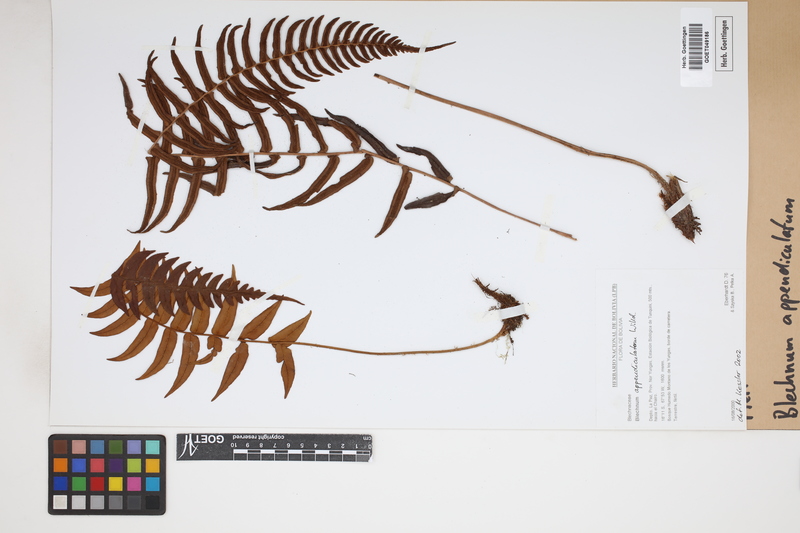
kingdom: Plantae
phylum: Tracheophyta
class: Polypodiopsida
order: Polypodiales
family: Blechnaceae
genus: Blechnum
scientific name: Blechnum appendiculatum
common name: Palm fern
